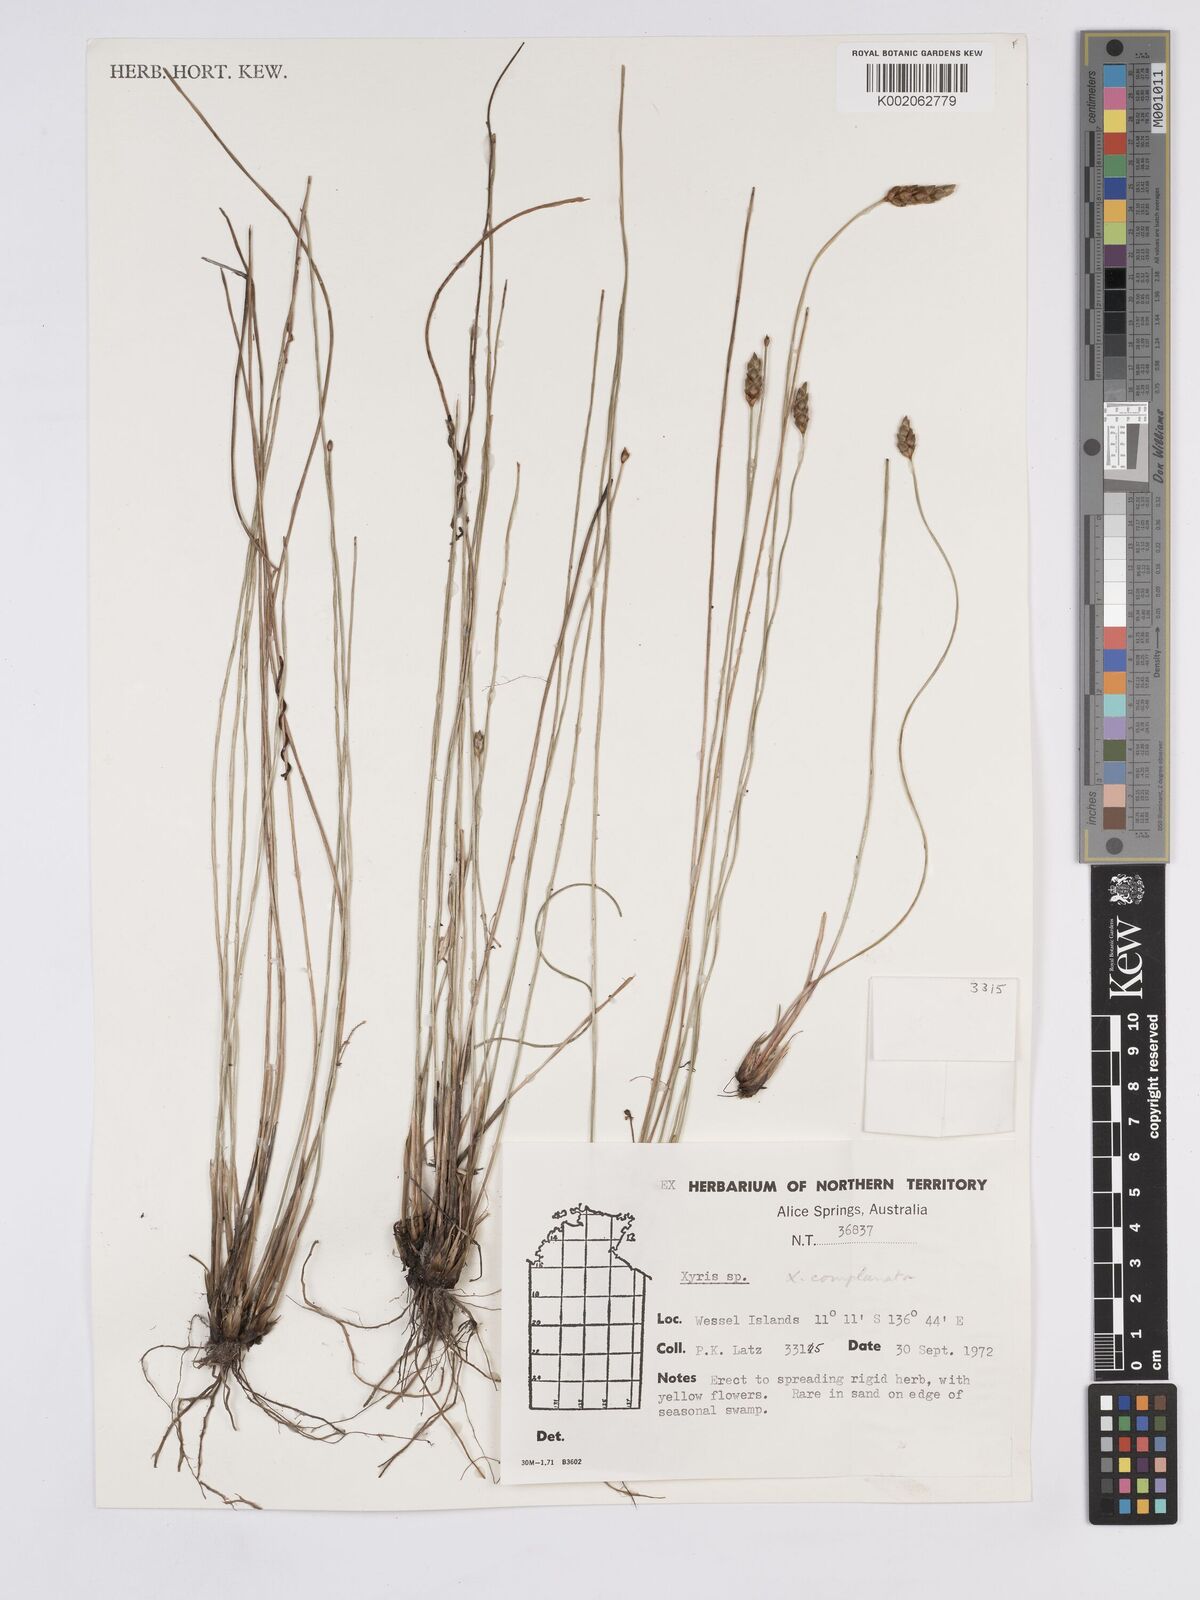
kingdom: Plantae
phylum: Tracheophyta
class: Liliopsida
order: Poales
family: Xyridaceae
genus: Xyris
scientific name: Xyris complanata
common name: Hawai'i yelloweyed grass
